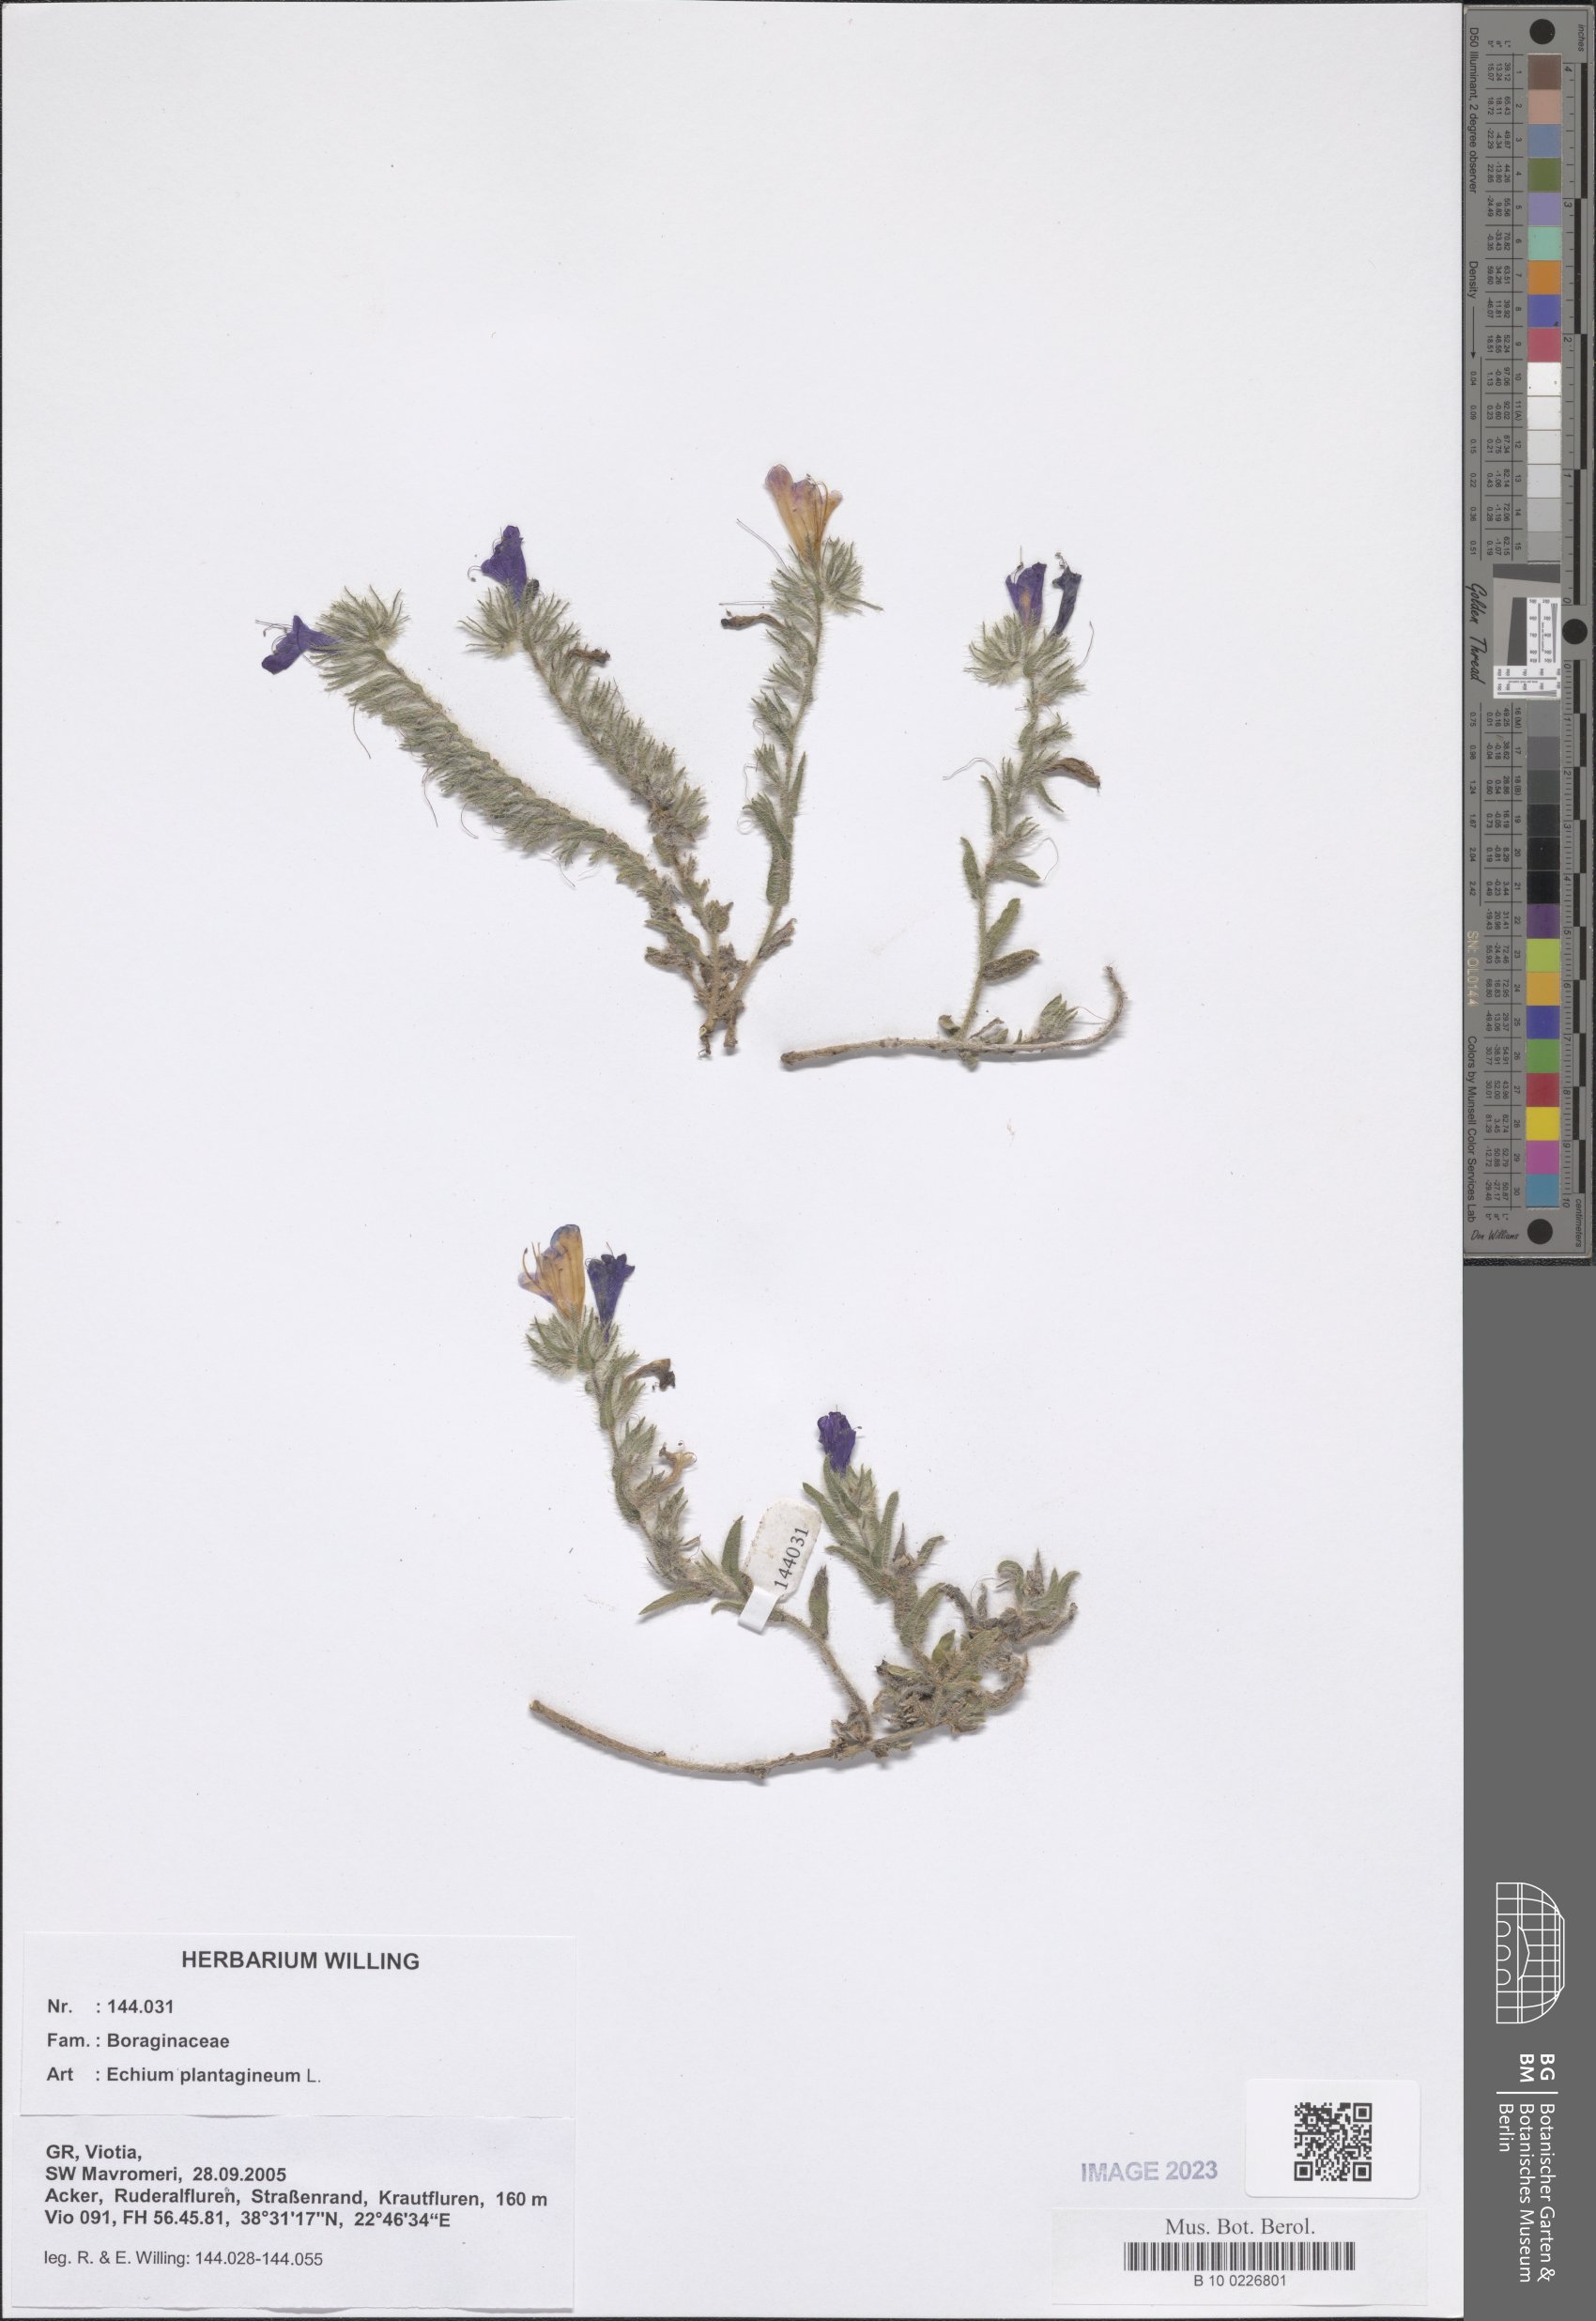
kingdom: Plantae
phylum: Tracheophyta
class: Magnoliopsida
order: Boraginales
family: Boraginaceae
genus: Echium
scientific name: Echium plantagineum
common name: Purple viper's-bugloss
